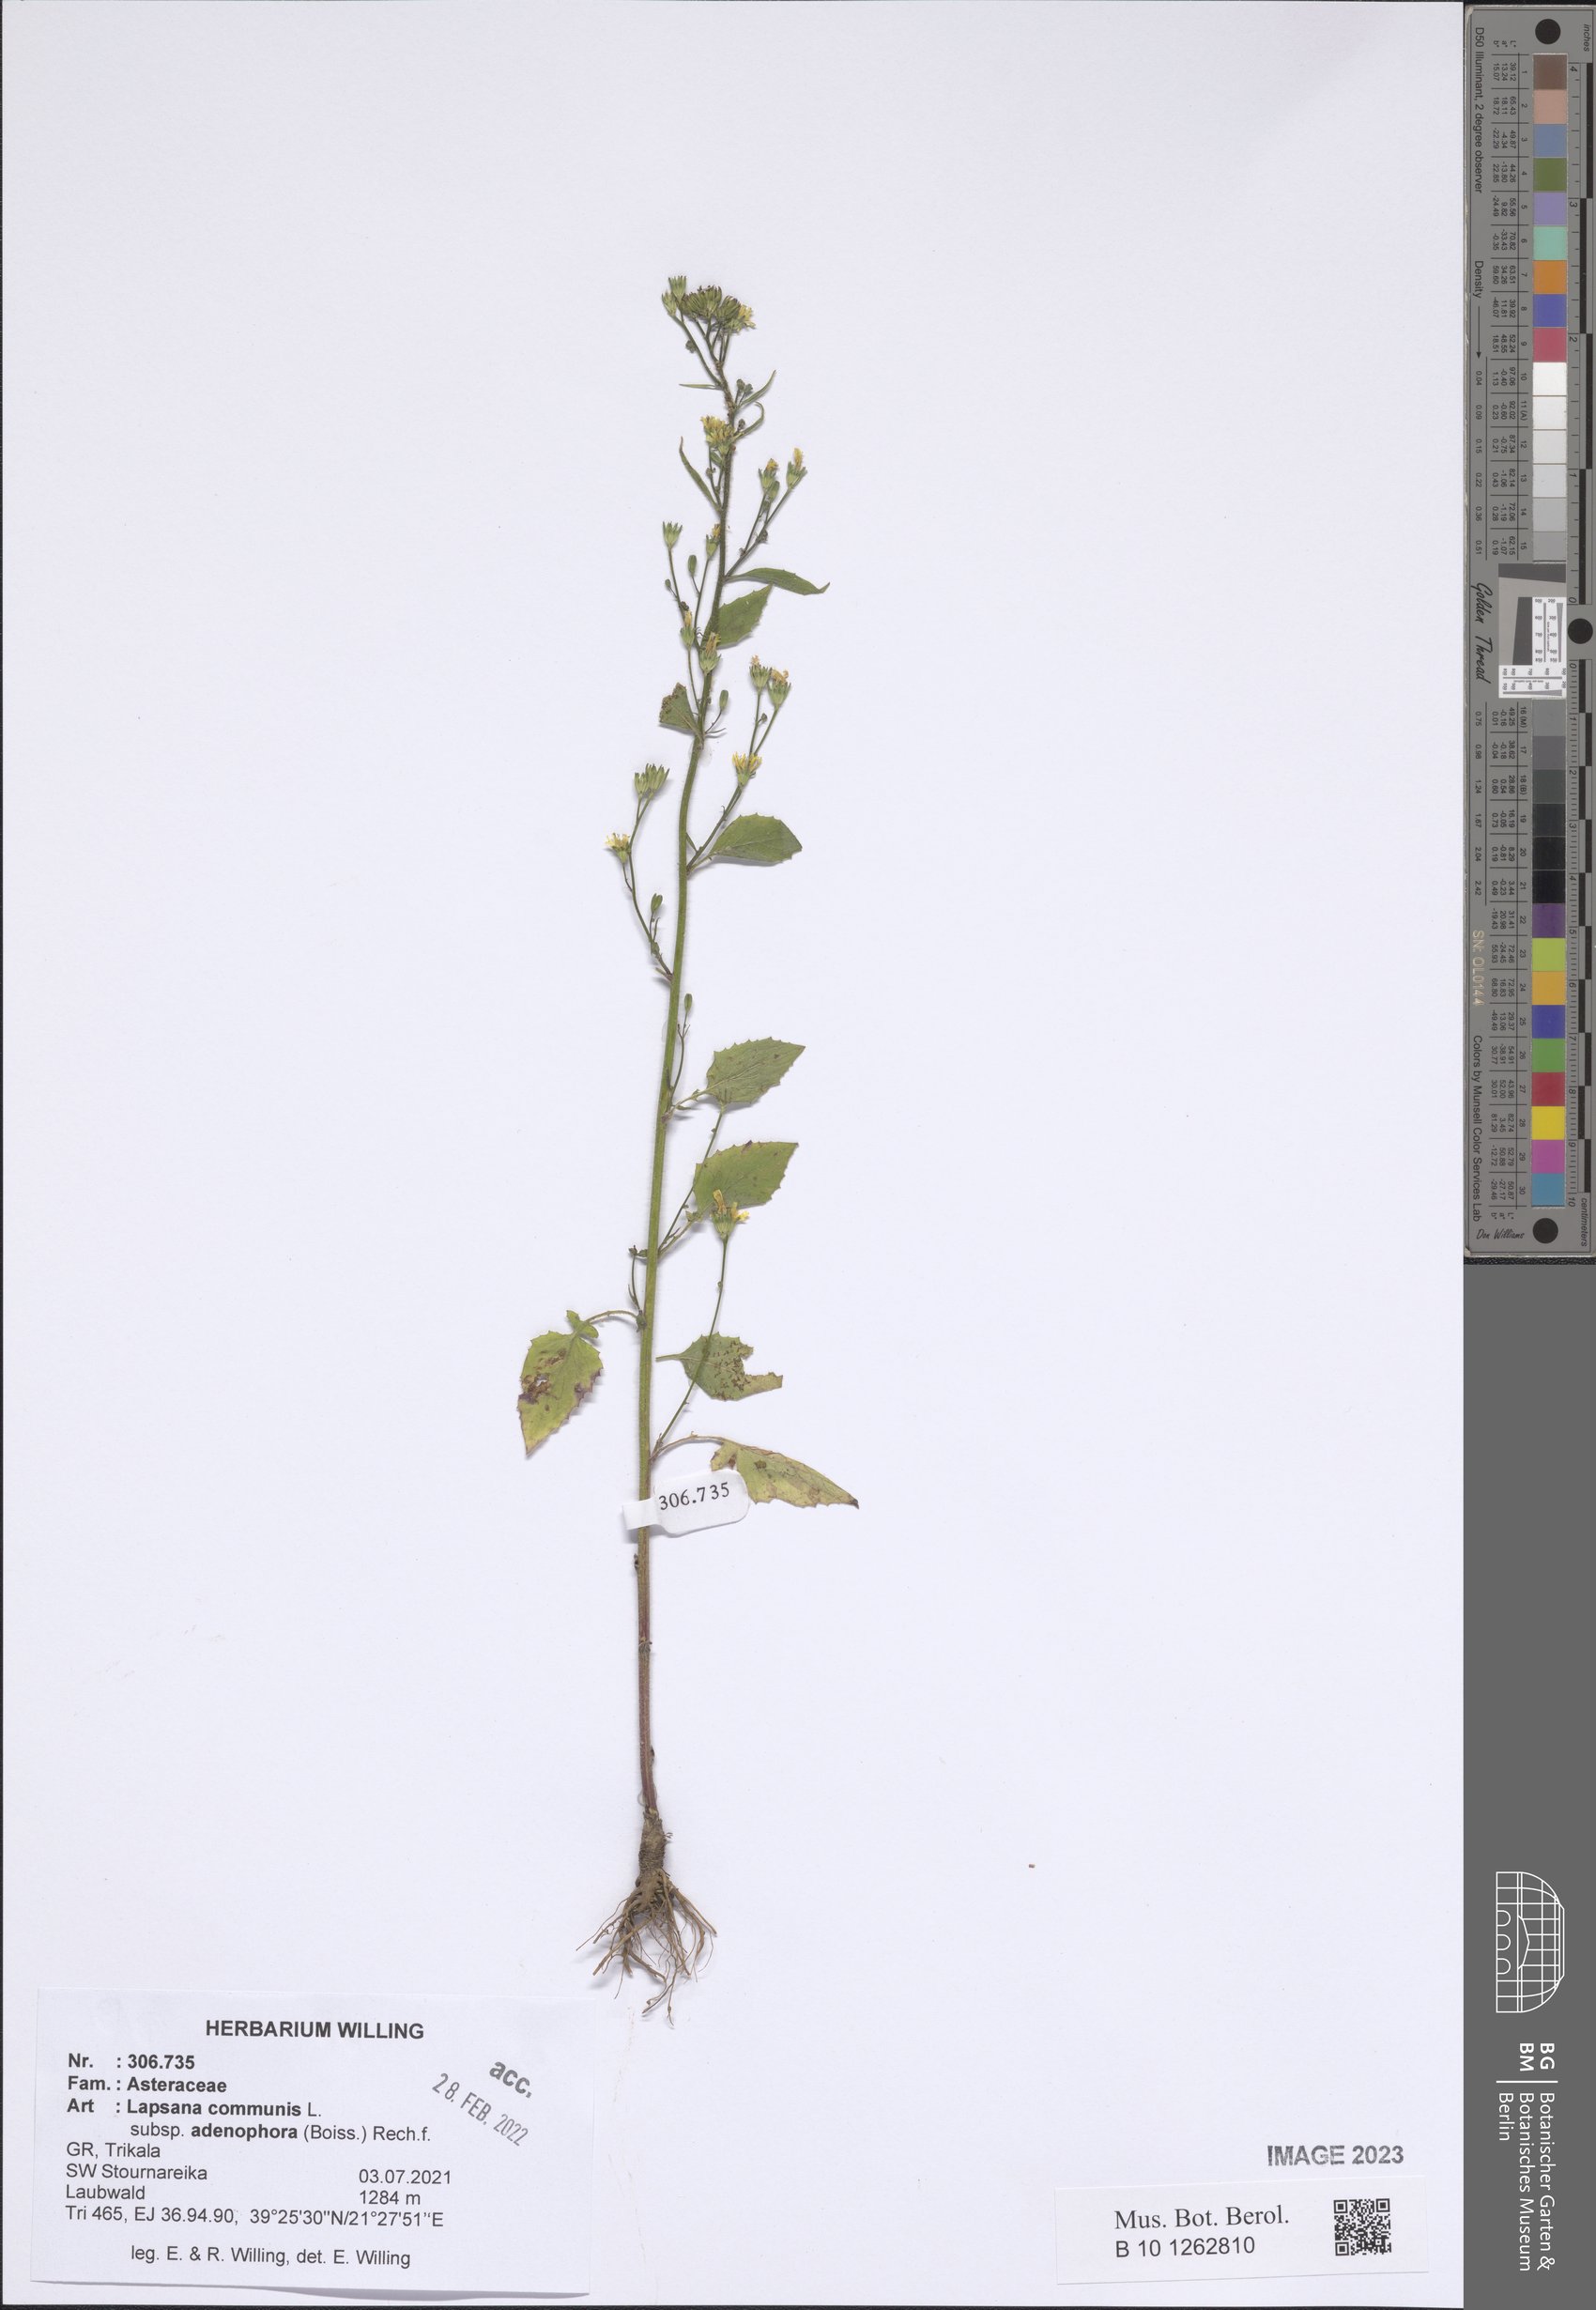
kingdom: Plantae
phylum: Tracheophyta
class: Magnoliopsida
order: Asterales
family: Asteraceae
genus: Lapsana
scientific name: Lapsana communis
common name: Nipplewort
